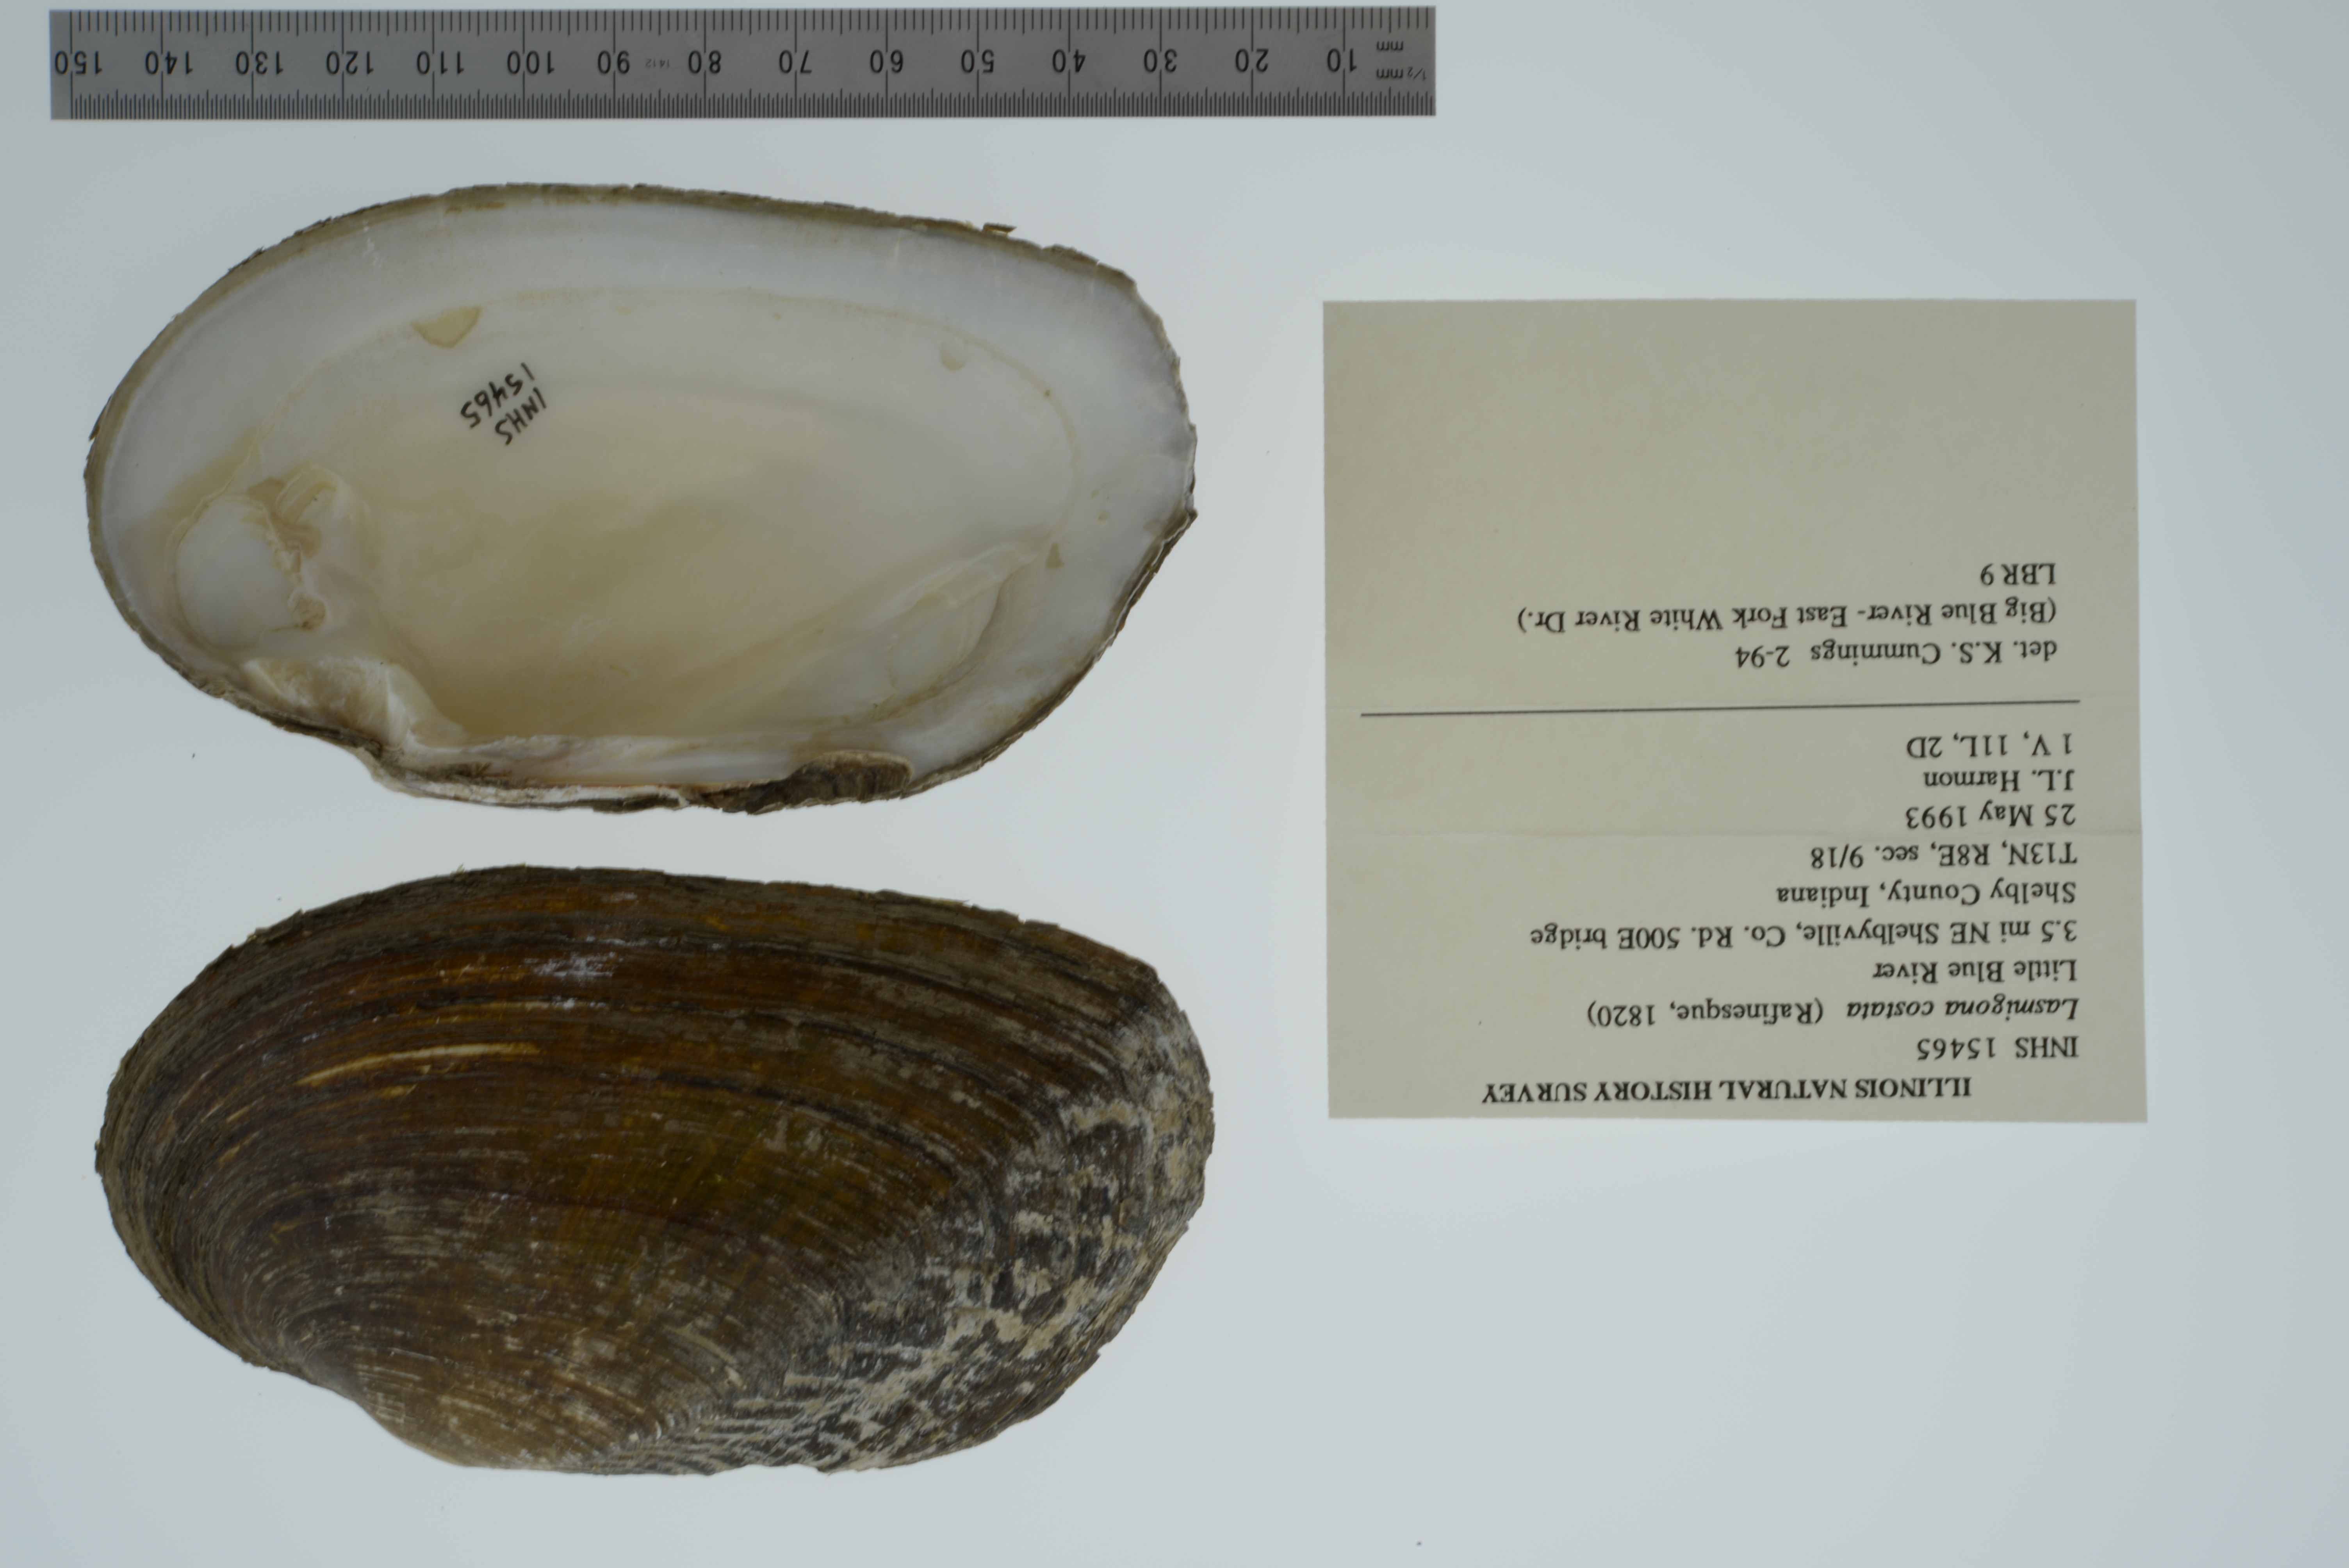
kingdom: Animalia
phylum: Mollusca
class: Bivalvia
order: Unionida
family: Unionidae
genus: Lasmigona
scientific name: Lasmigona costata
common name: Flutedshell
